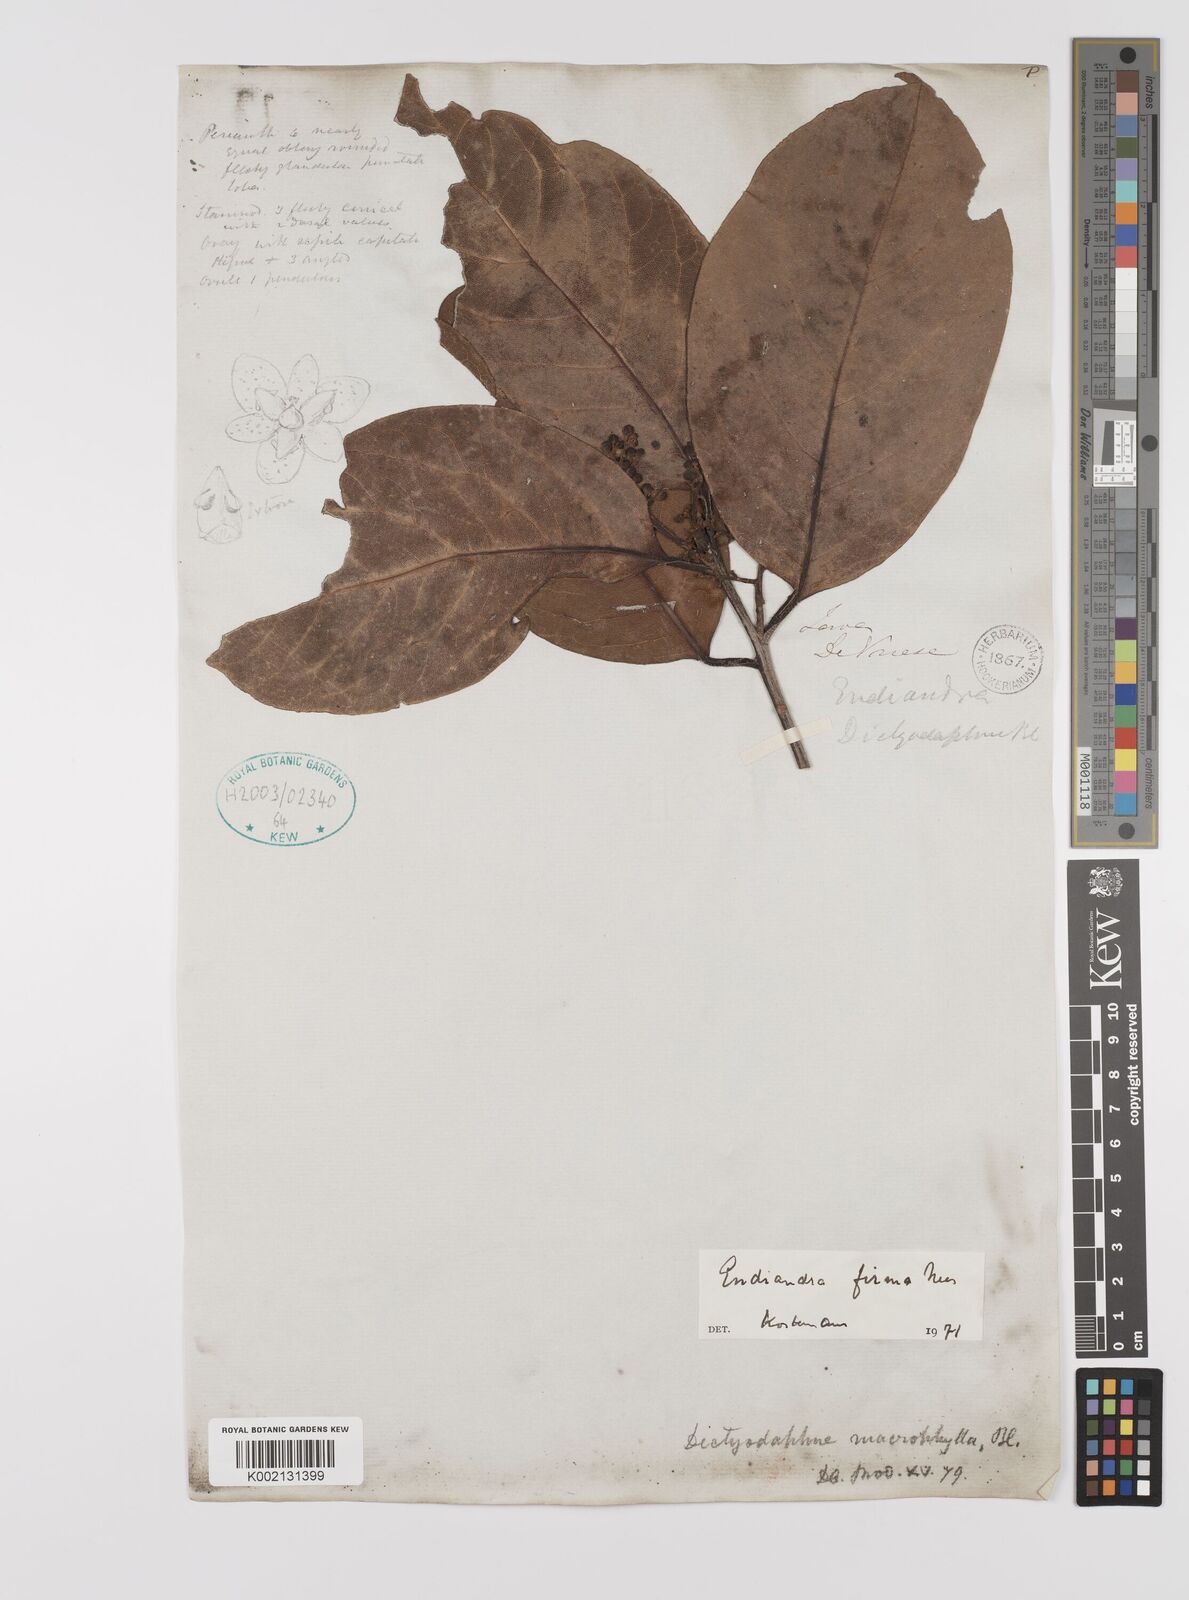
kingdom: Plantae
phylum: Tracheophyta
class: Magnoliopsida
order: Laurales
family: Lauraceae
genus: Endiandra
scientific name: Endiandra firma
